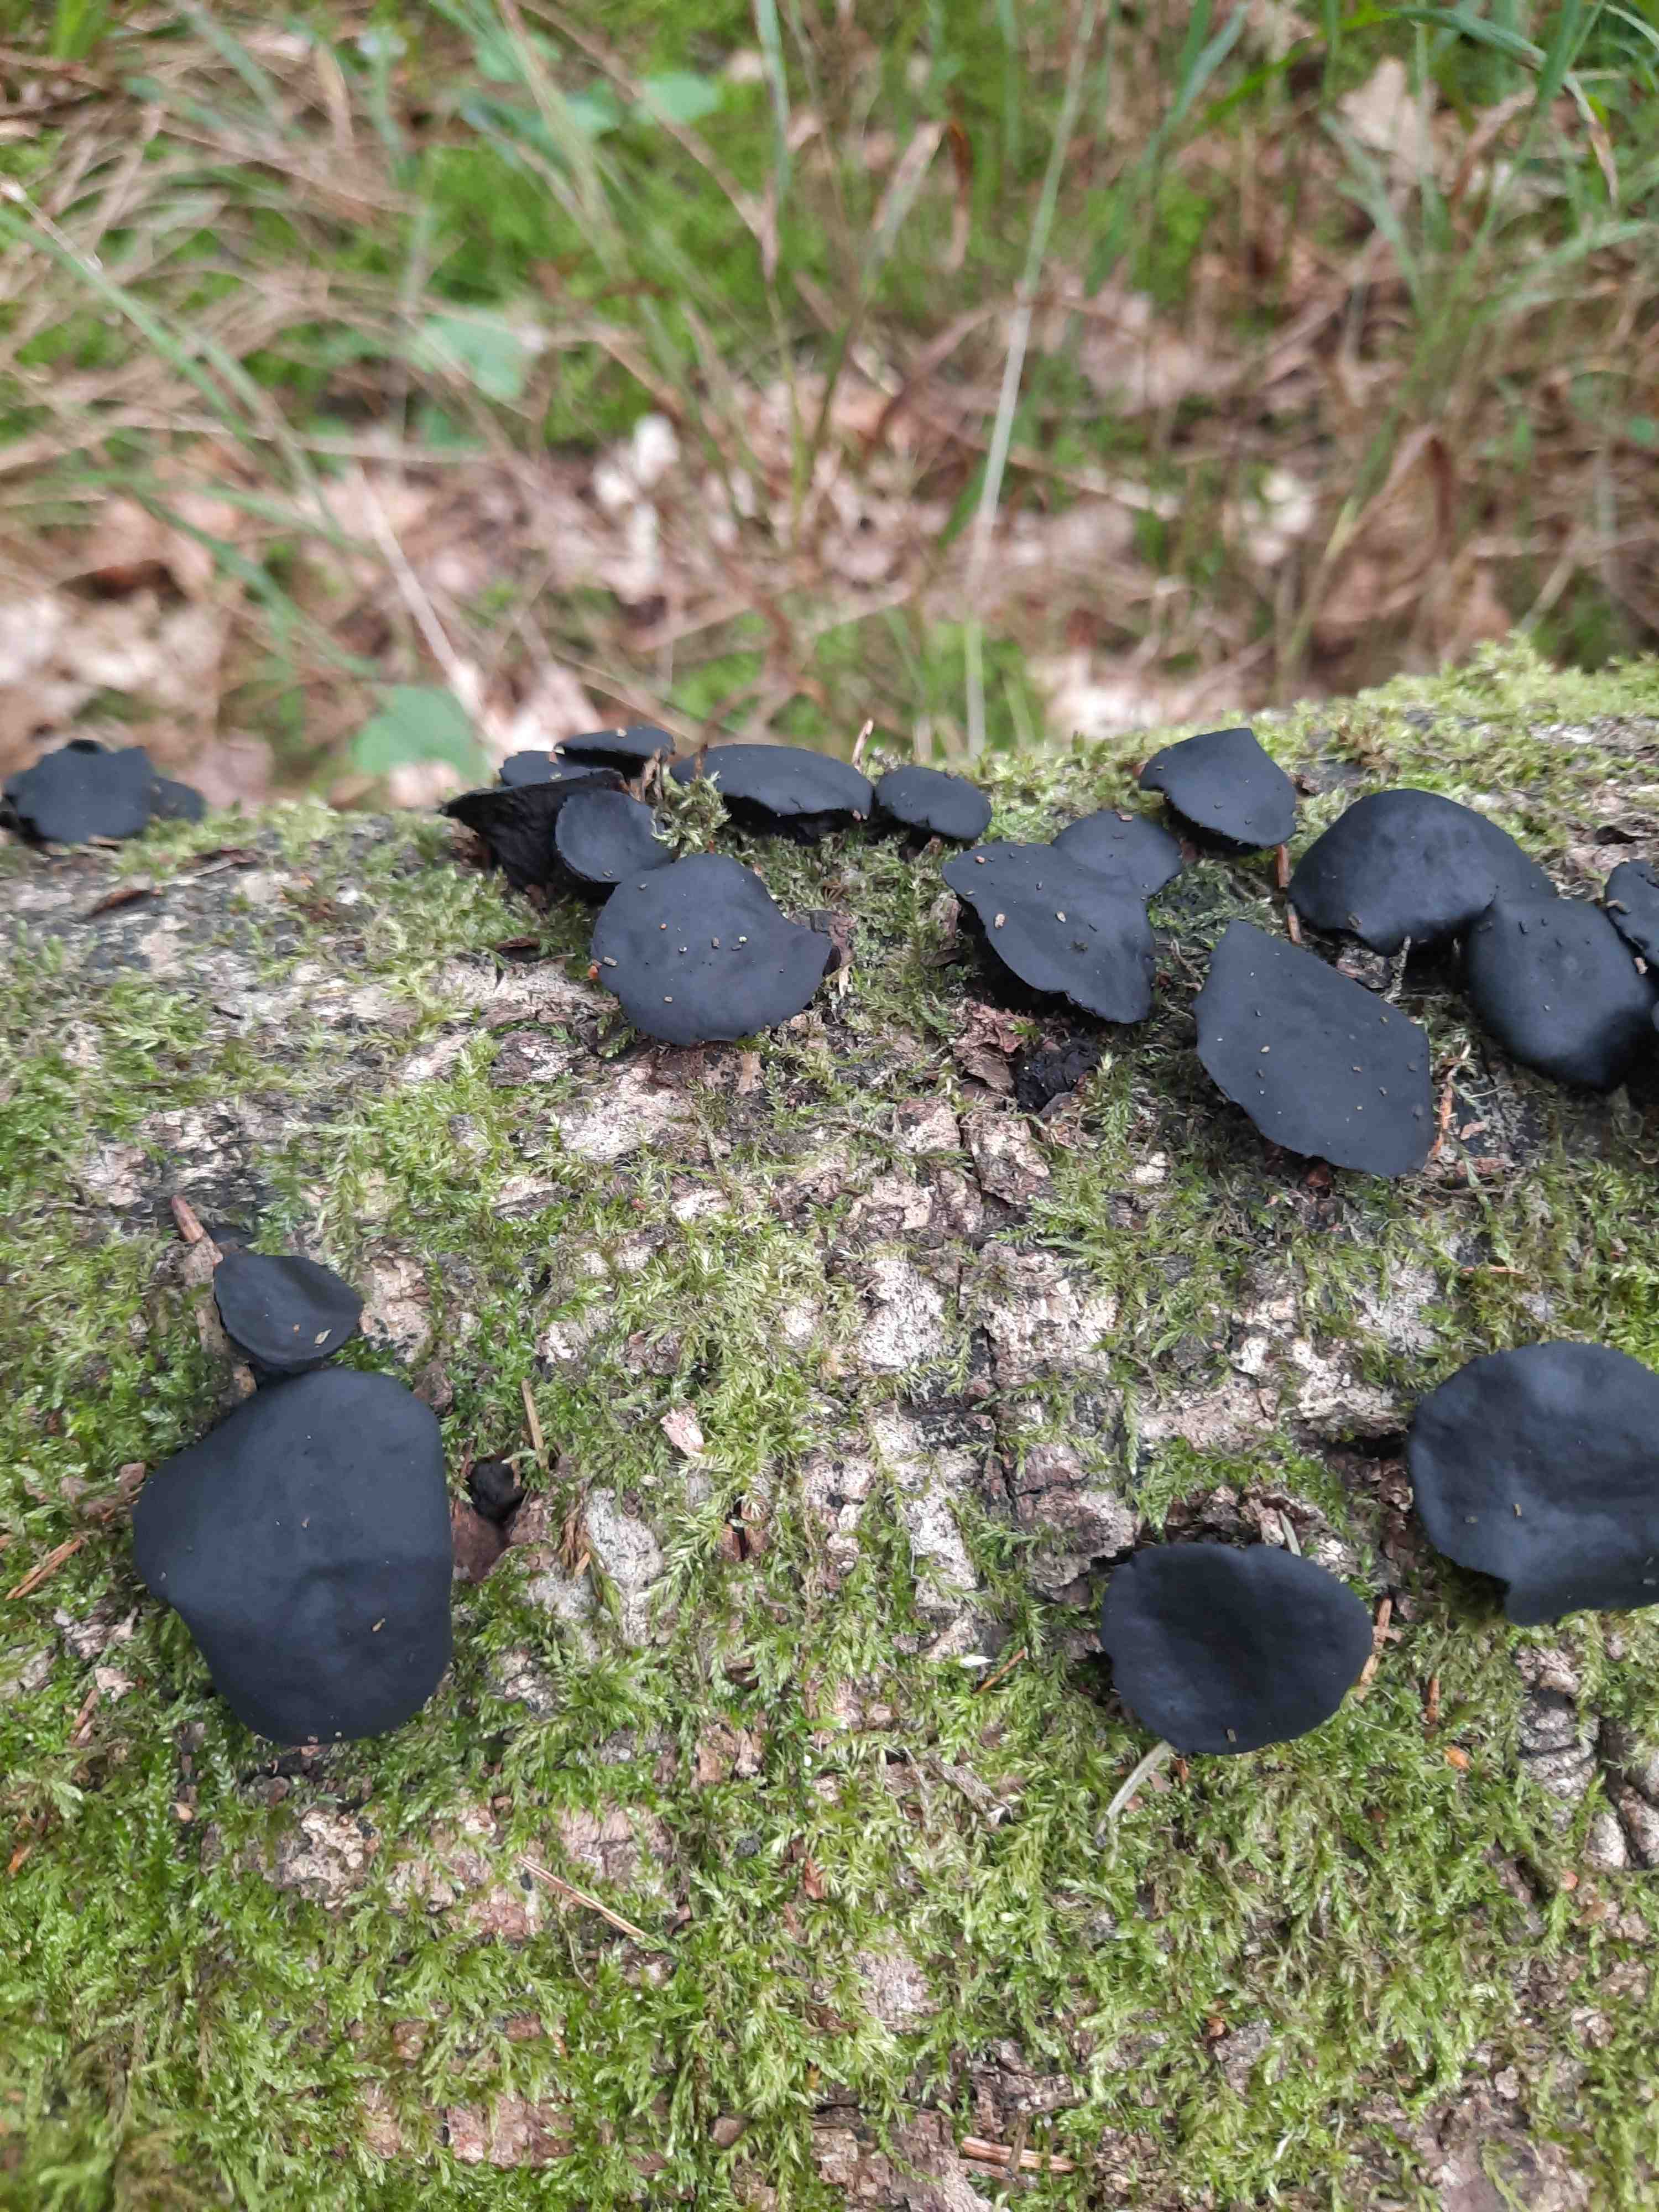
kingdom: Fungi
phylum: Ascomycota
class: Leotiomycetes
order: Phacidiales
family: Phacidiaceae
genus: Bulgaria
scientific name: Bulgaria inquinans
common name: afsmittende topsvamp
